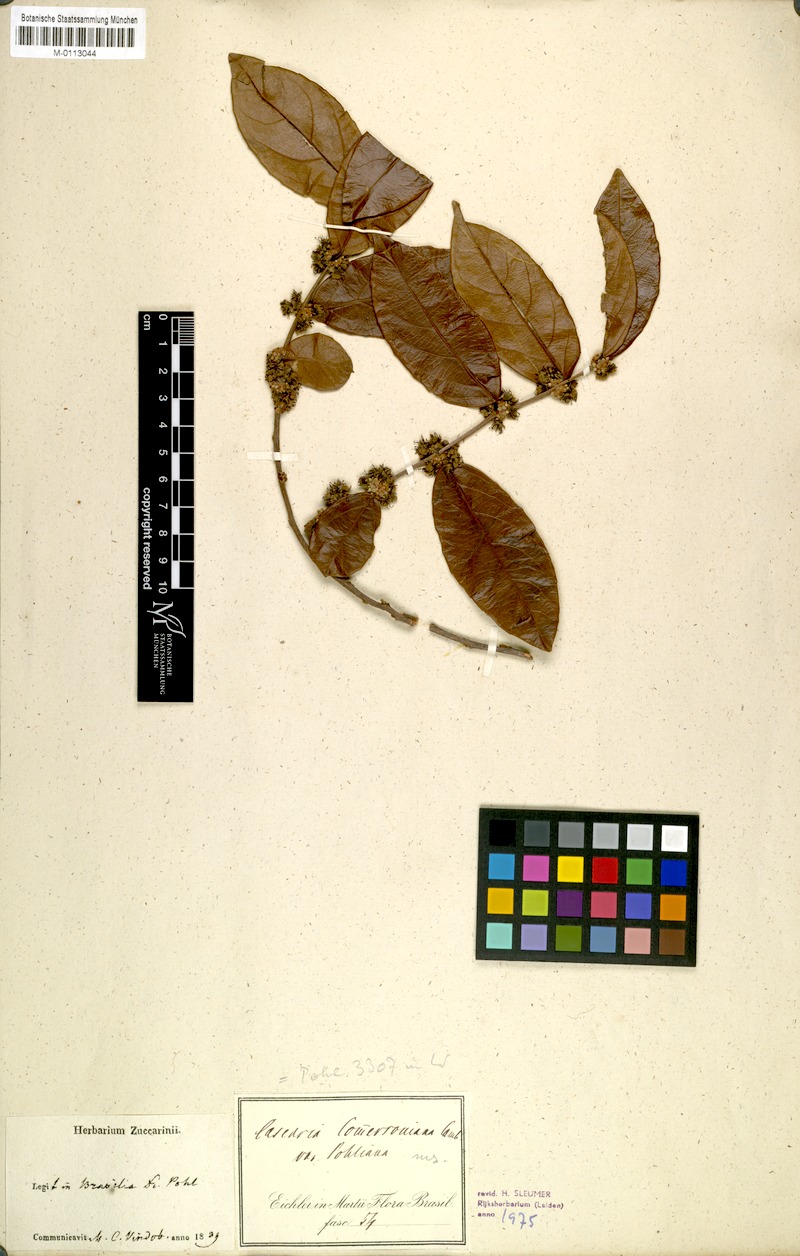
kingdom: Plantae
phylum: Tracheophyta
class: Magnoliopsida
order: Malpighiales
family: Salicaceae
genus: Piparea
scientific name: Piparea dentata
